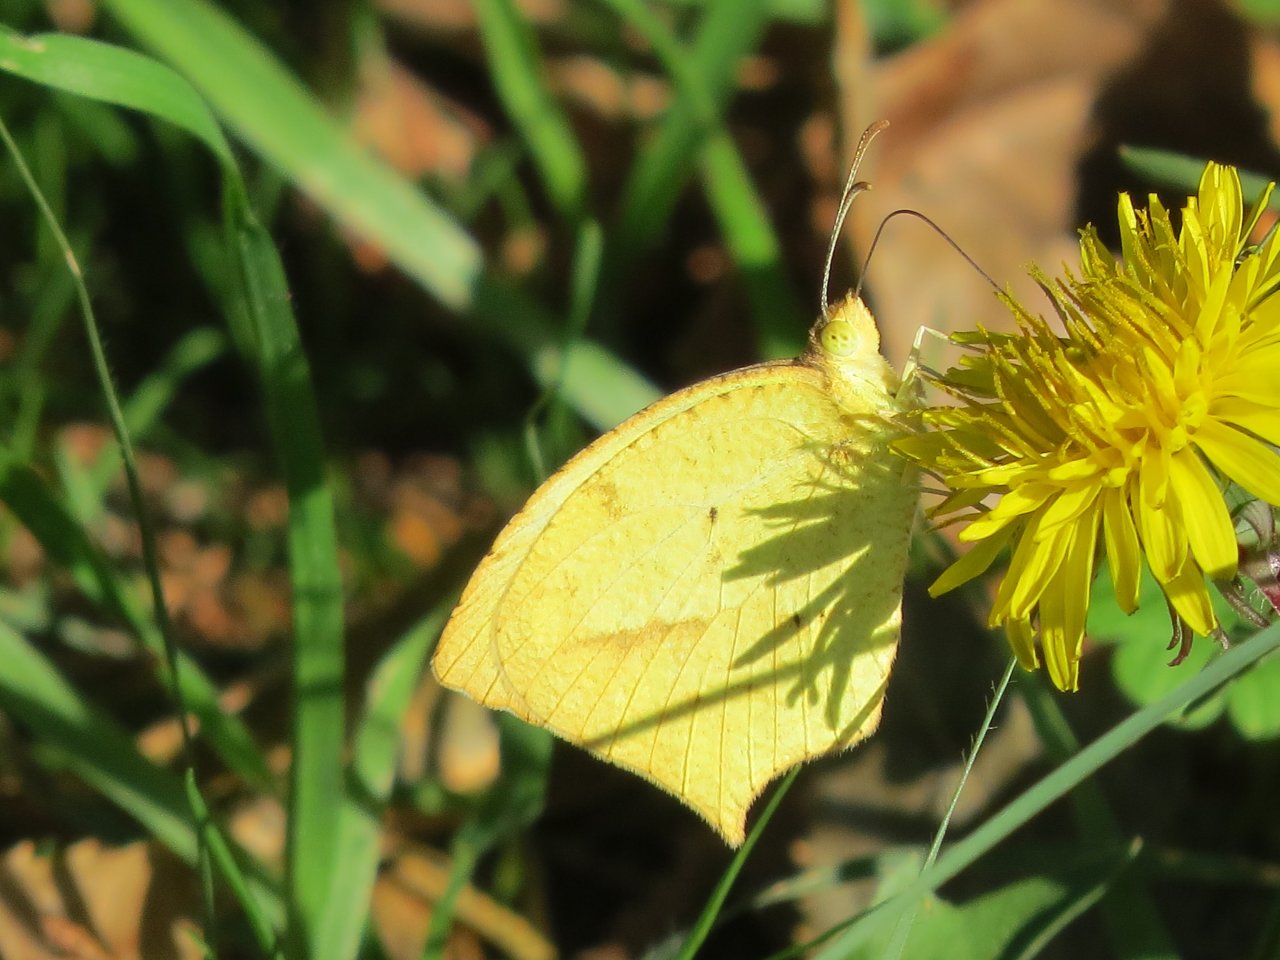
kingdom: Animalia
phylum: Arthropoda
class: Insecta
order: Lepidoptera
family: Pieridae
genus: Eurema
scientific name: Eurema mexicana
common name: Mexican Yellow
